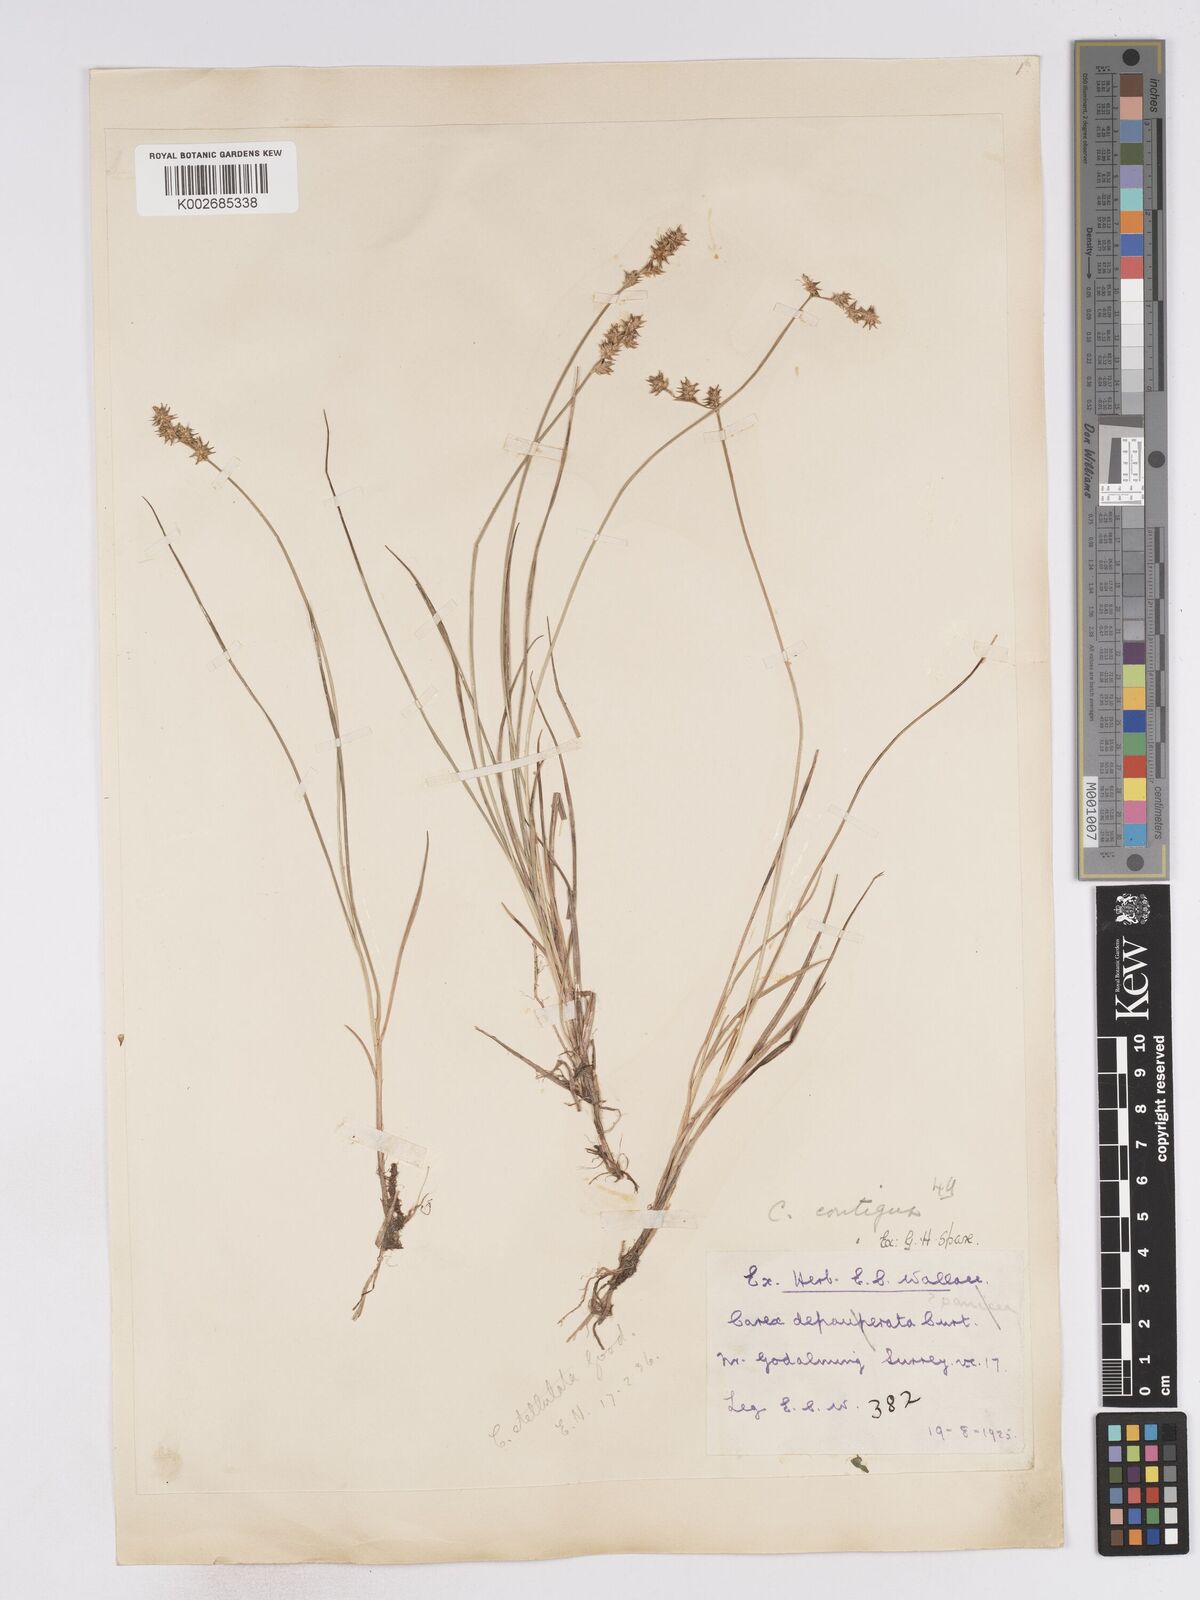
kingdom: Plantae
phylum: Tracheophyta
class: Liliopsida
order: Poales
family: Cyperaceae
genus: Carex
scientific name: Carex echinata
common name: Star sedge
